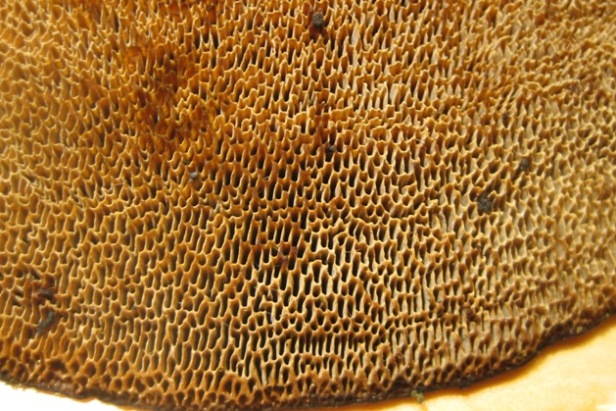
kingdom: Fungi
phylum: Basidiomycota
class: Agaricomycetes
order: Polyporales
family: Polyporaceae
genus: Daedaleopsis
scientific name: Daedaleopsis confragosa
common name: rødmende læderporesvamp
